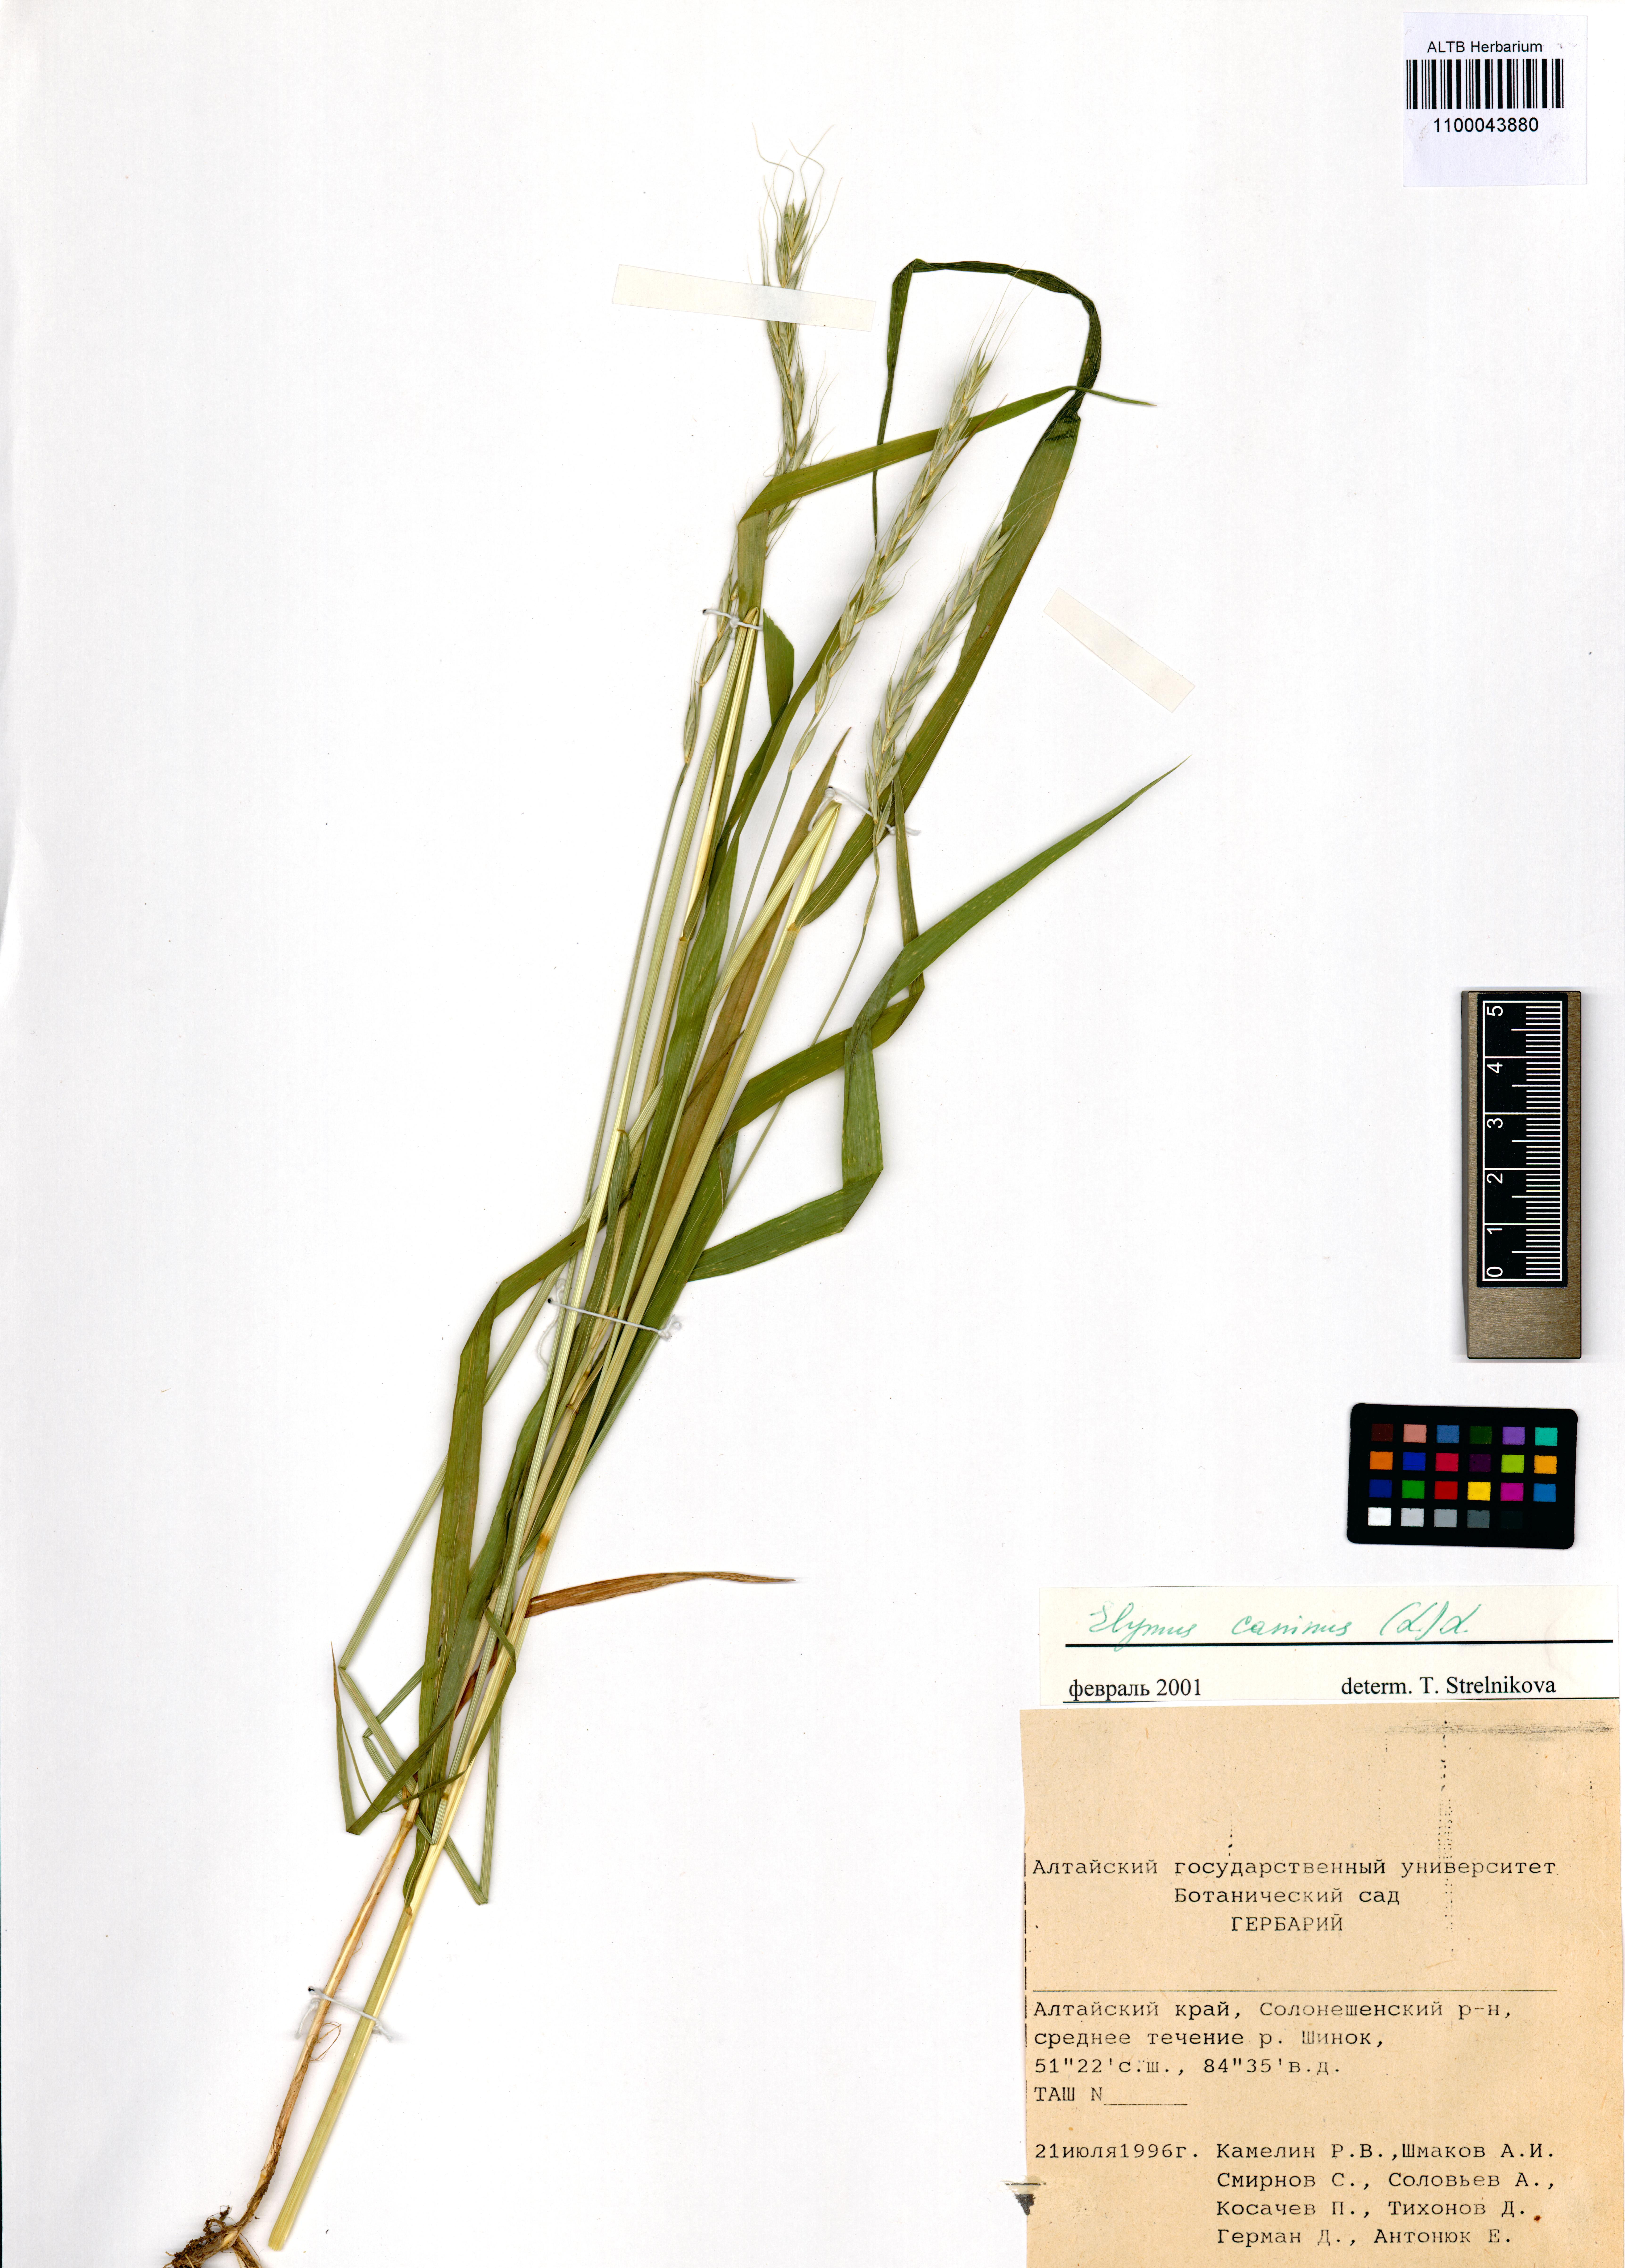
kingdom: Plantae
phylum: Tracheophyta
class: Liliopsida
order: Poales
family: Poaceae
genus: Elymus
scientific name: Elymus caninus
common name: Bearded couch
